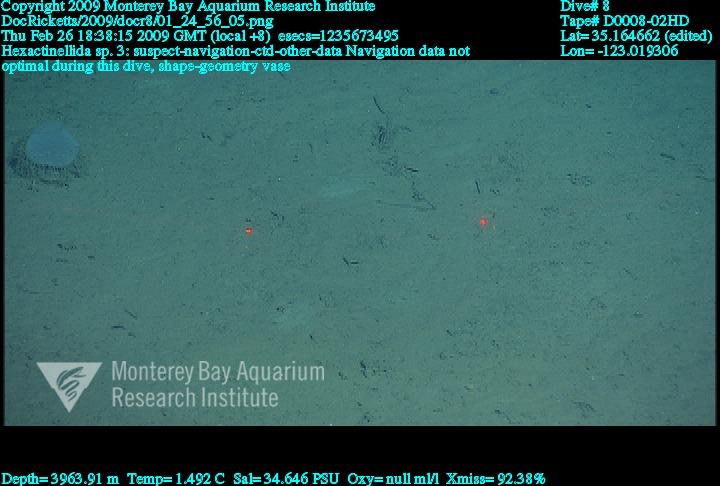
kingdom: Animalia
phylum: Porifera
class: Hexactinellida
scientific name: Hexactinellida
